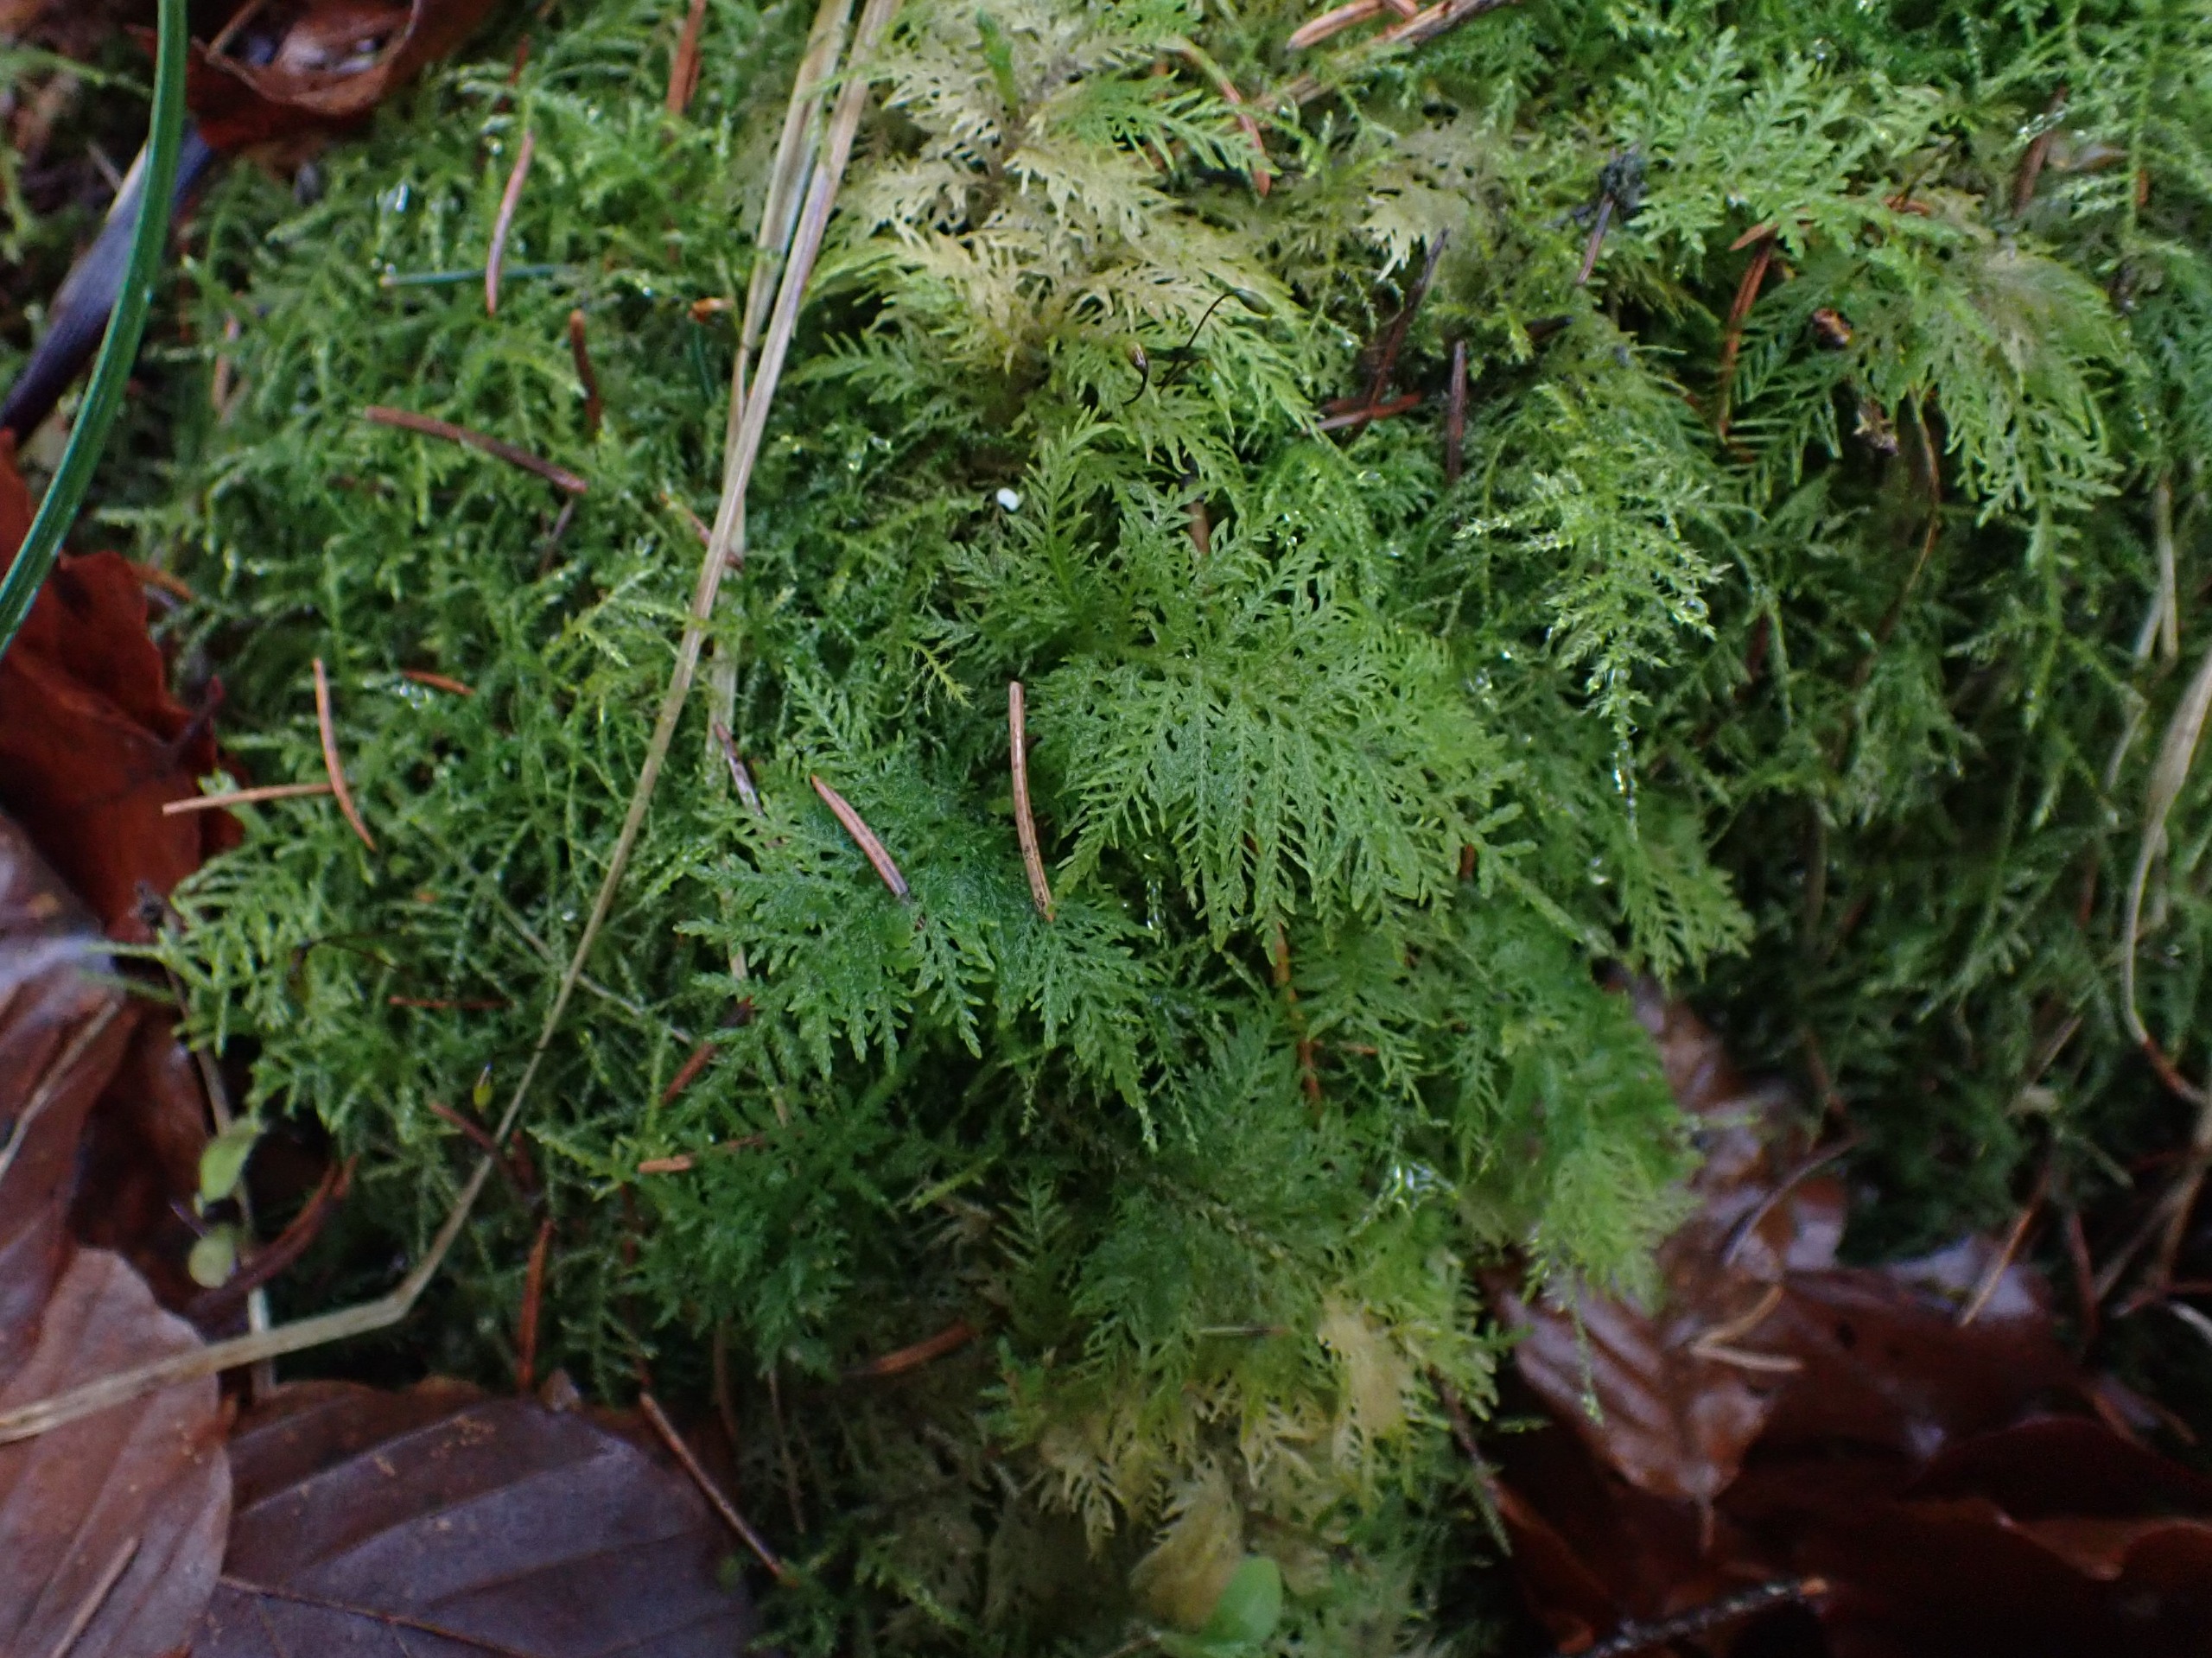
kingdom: Plantae
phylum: Bryophyta
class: Bryopsida
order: Hypnales
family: Thuidiaceae
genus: Thuidium
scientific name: Thuidium tamariscinum
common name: Pryd-bregnemos
